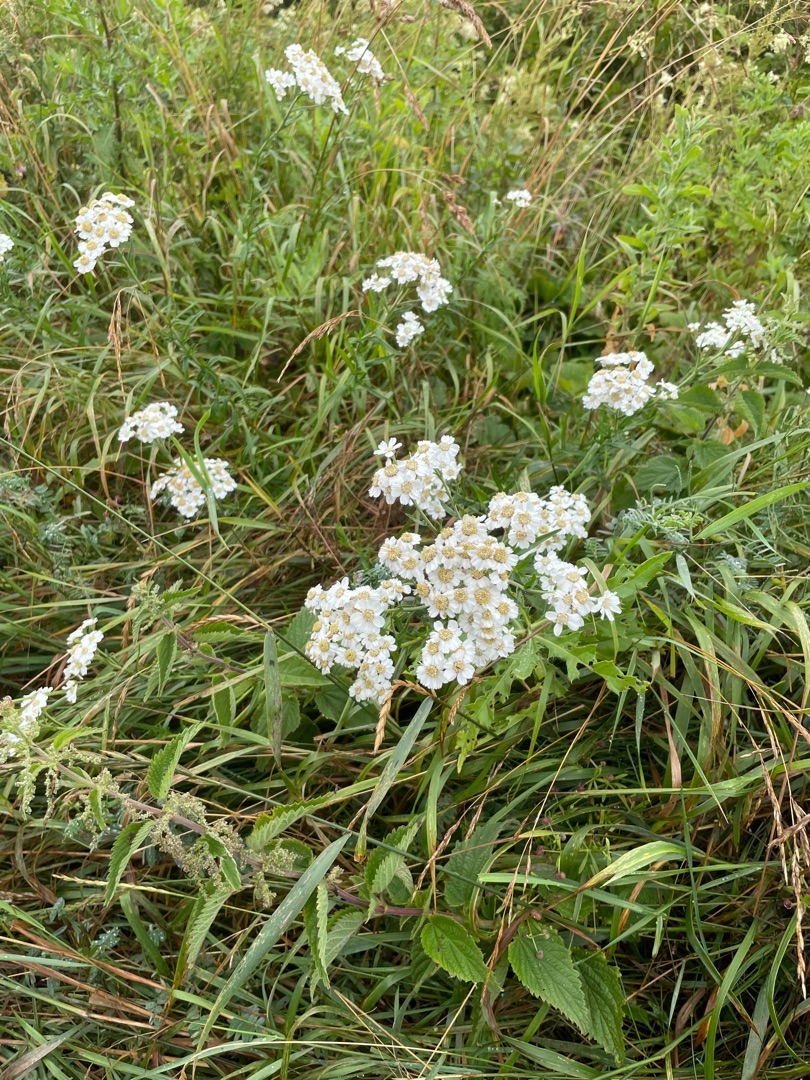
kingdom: Plantae
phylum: Tracheophyta
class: Magnoliopsida
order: Asterales
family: Asteraceae
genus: Achillea
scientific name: Achillea ptarmica
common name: Nyse-røllike
